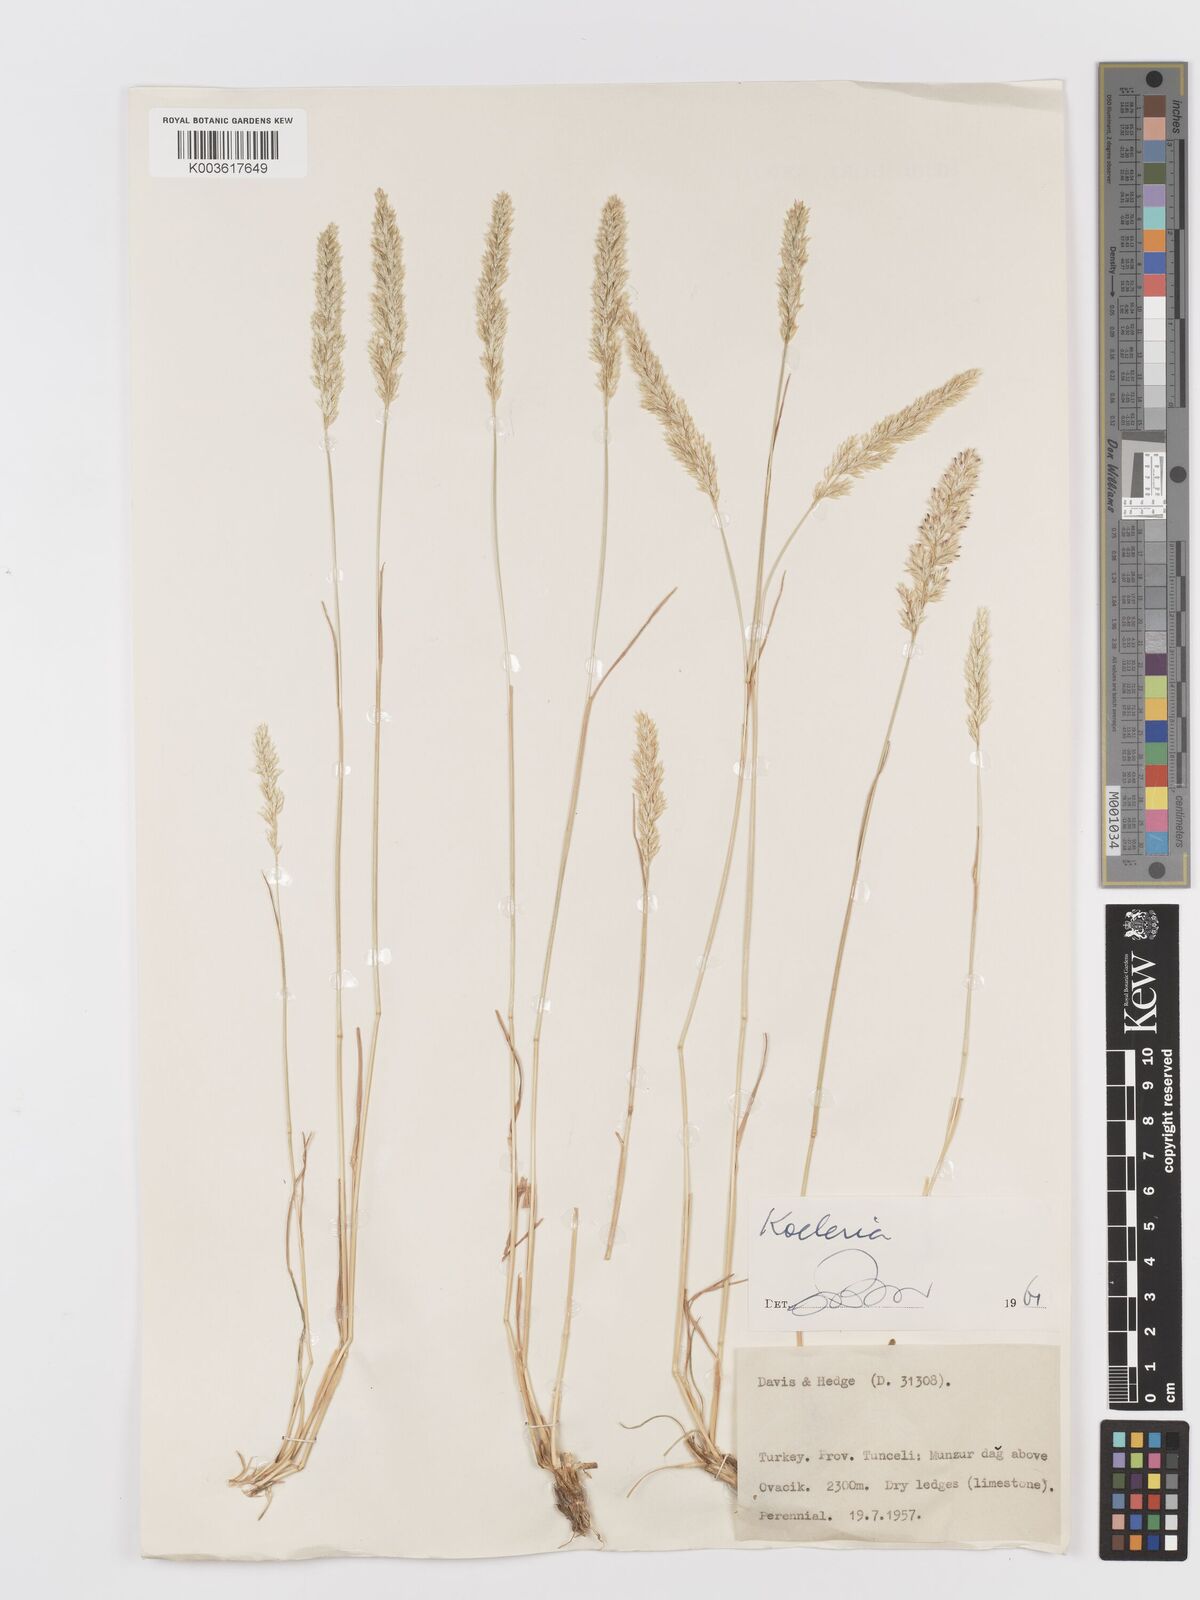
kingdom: Plantae
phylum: Tracheophyta
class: Liliopsida
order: Poales
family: Poaceae
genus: Koeleria
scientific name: Koeleria
